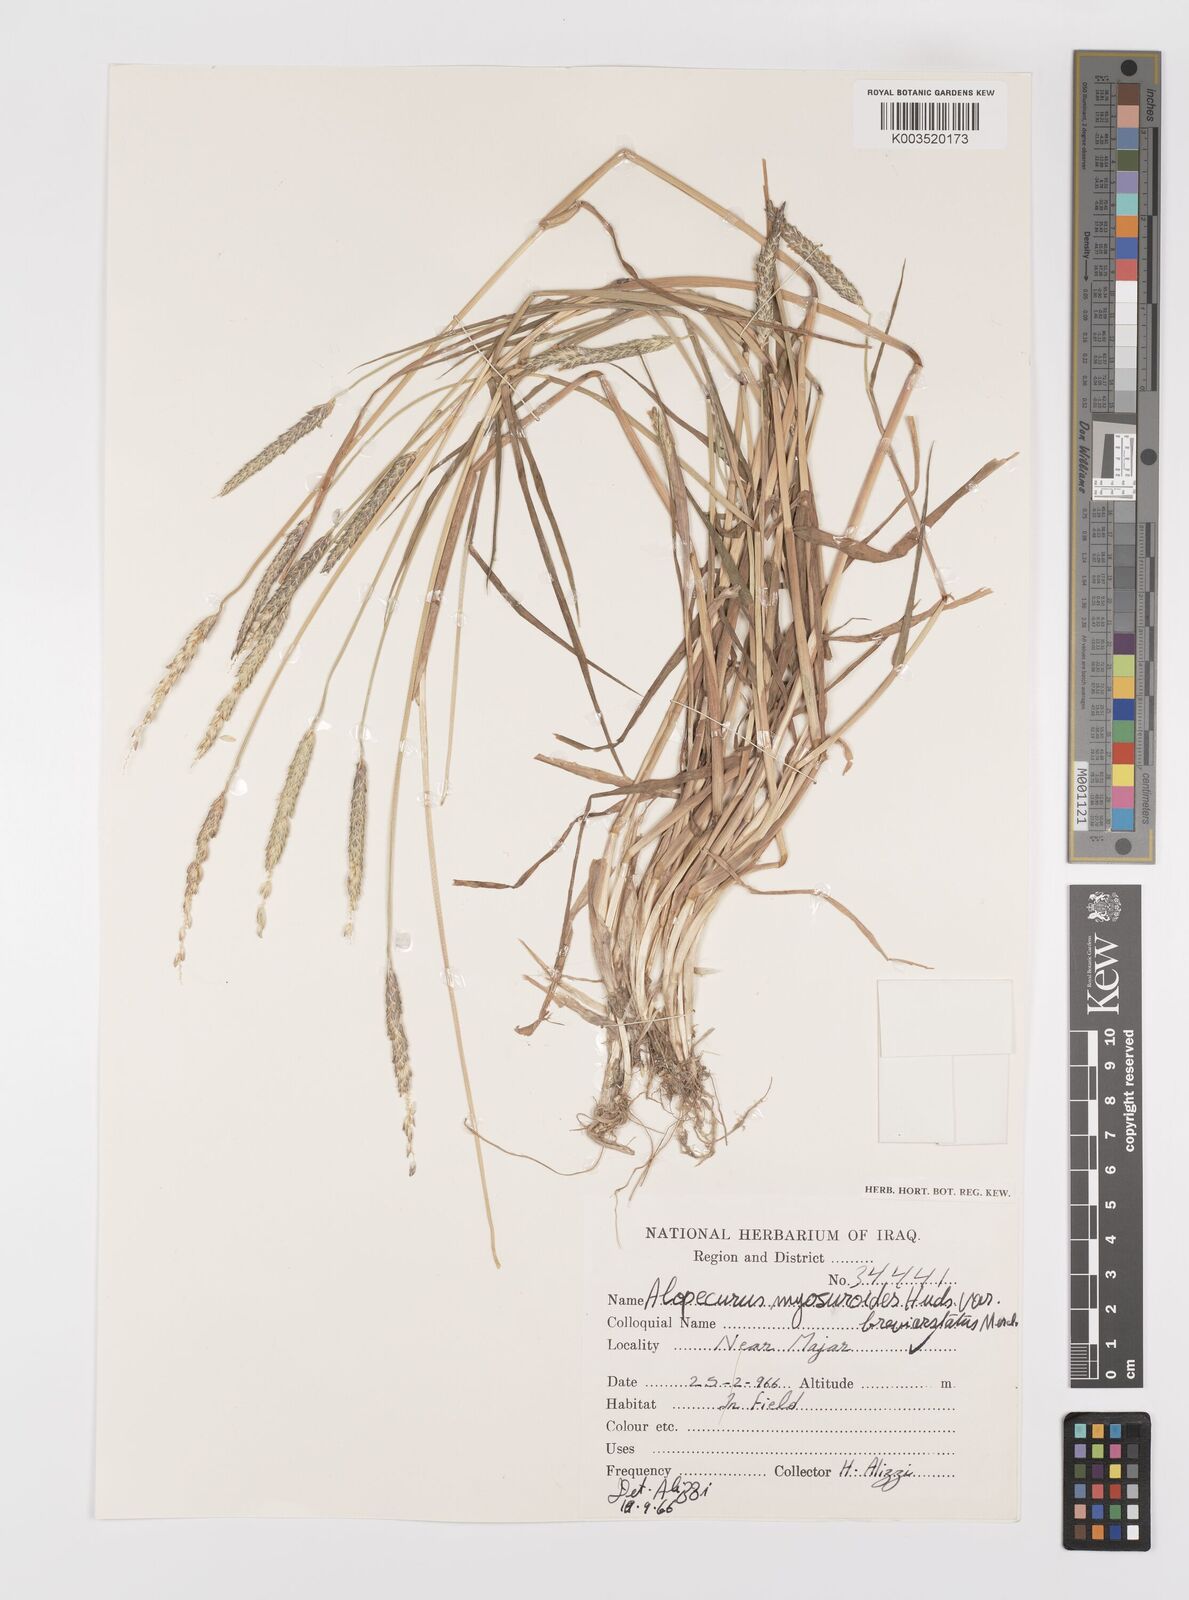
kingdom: Plantae
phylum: Tracheophyta
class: Liliopsida
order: Poales
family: Poaceae
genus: Alopecurus
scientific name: Alopecurus myosuroides
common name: Black-grass
